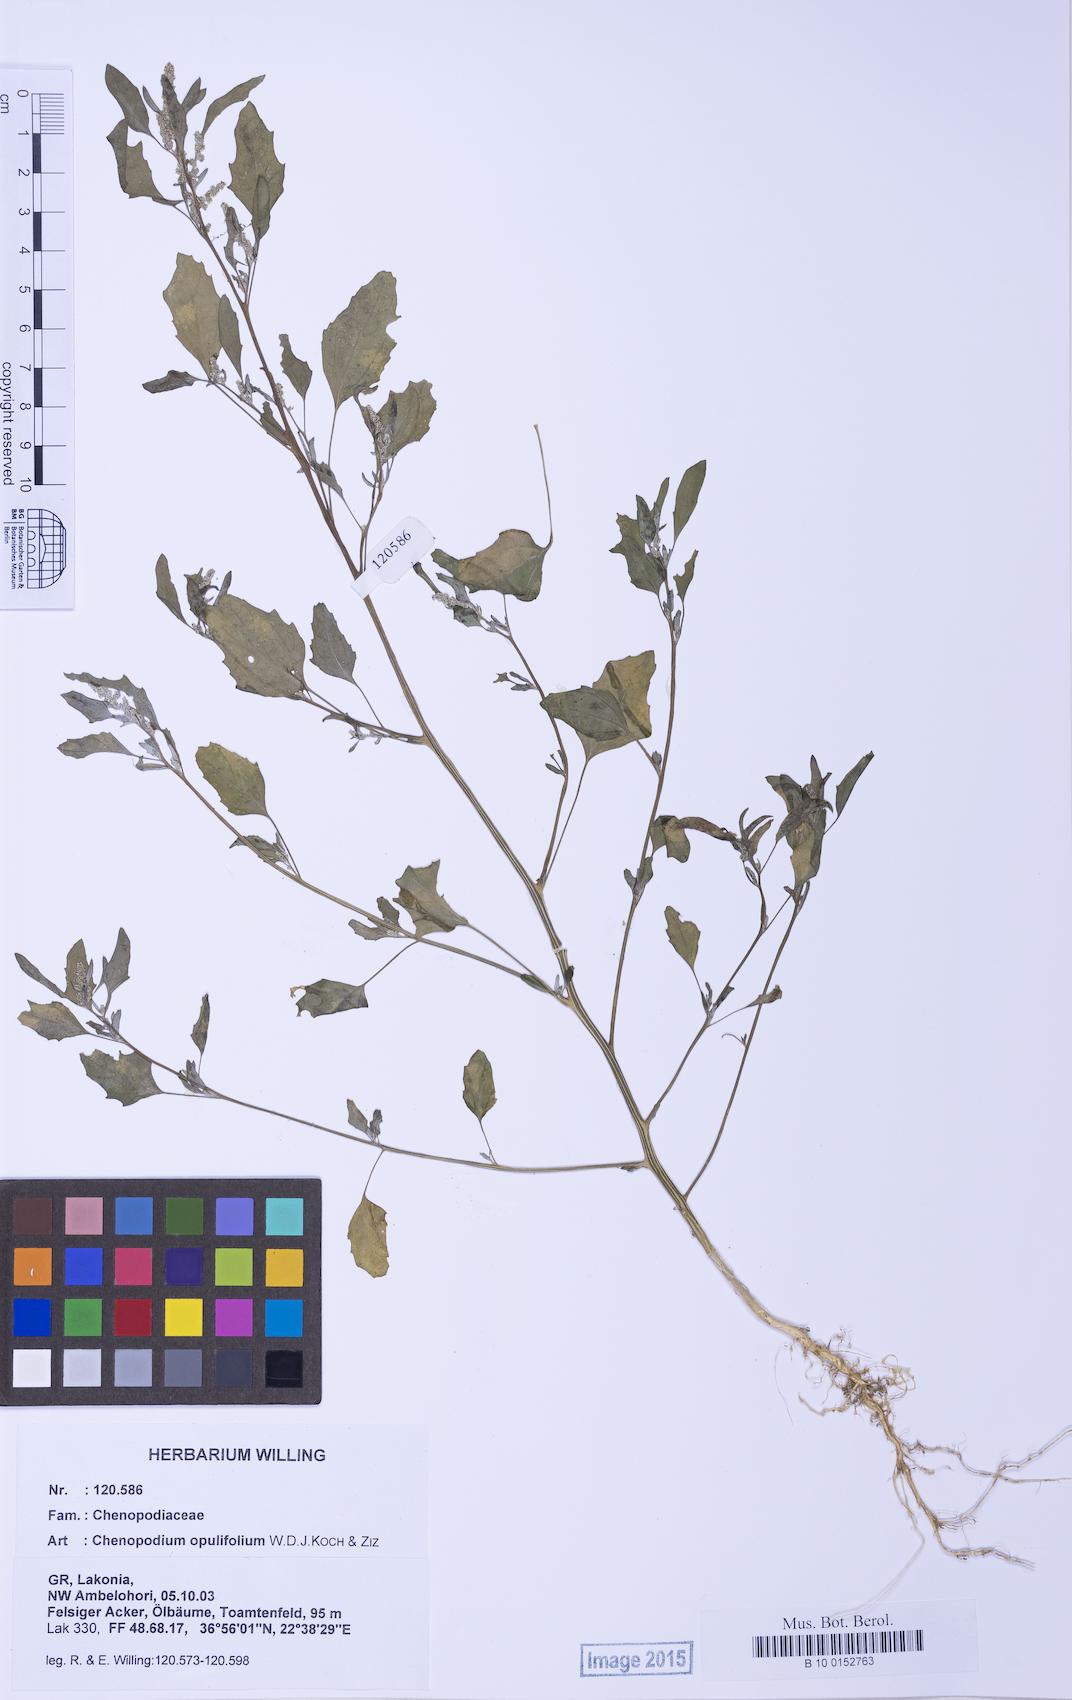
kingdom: Plantae
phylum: Tracheophyta
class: Magnoliopsida
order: Caryophyllales
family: Amaranthaceae
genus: Chenopodium
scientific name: Chenopodium album
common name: Fat-hen
